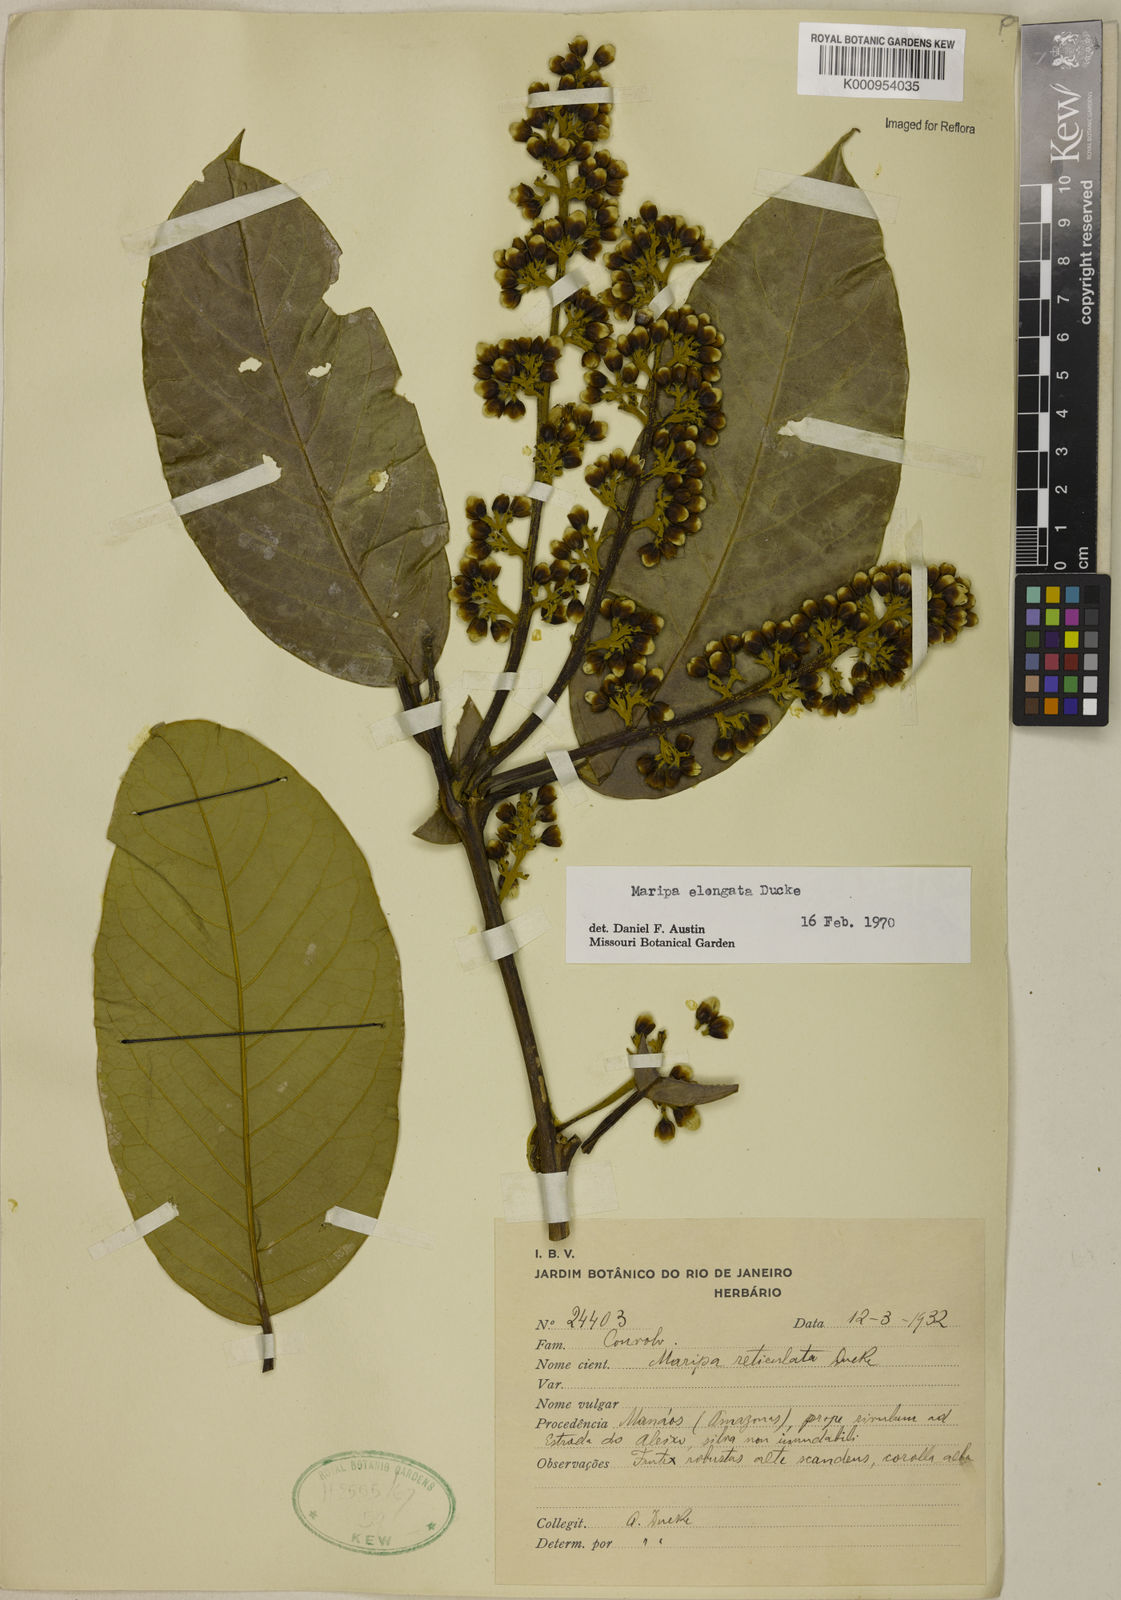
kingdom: Plantae
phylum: Tracheophyta
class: Magnoliopsida
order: Solanales
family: Convolvulaceae
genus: Maripa
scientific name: Maripa elongata
